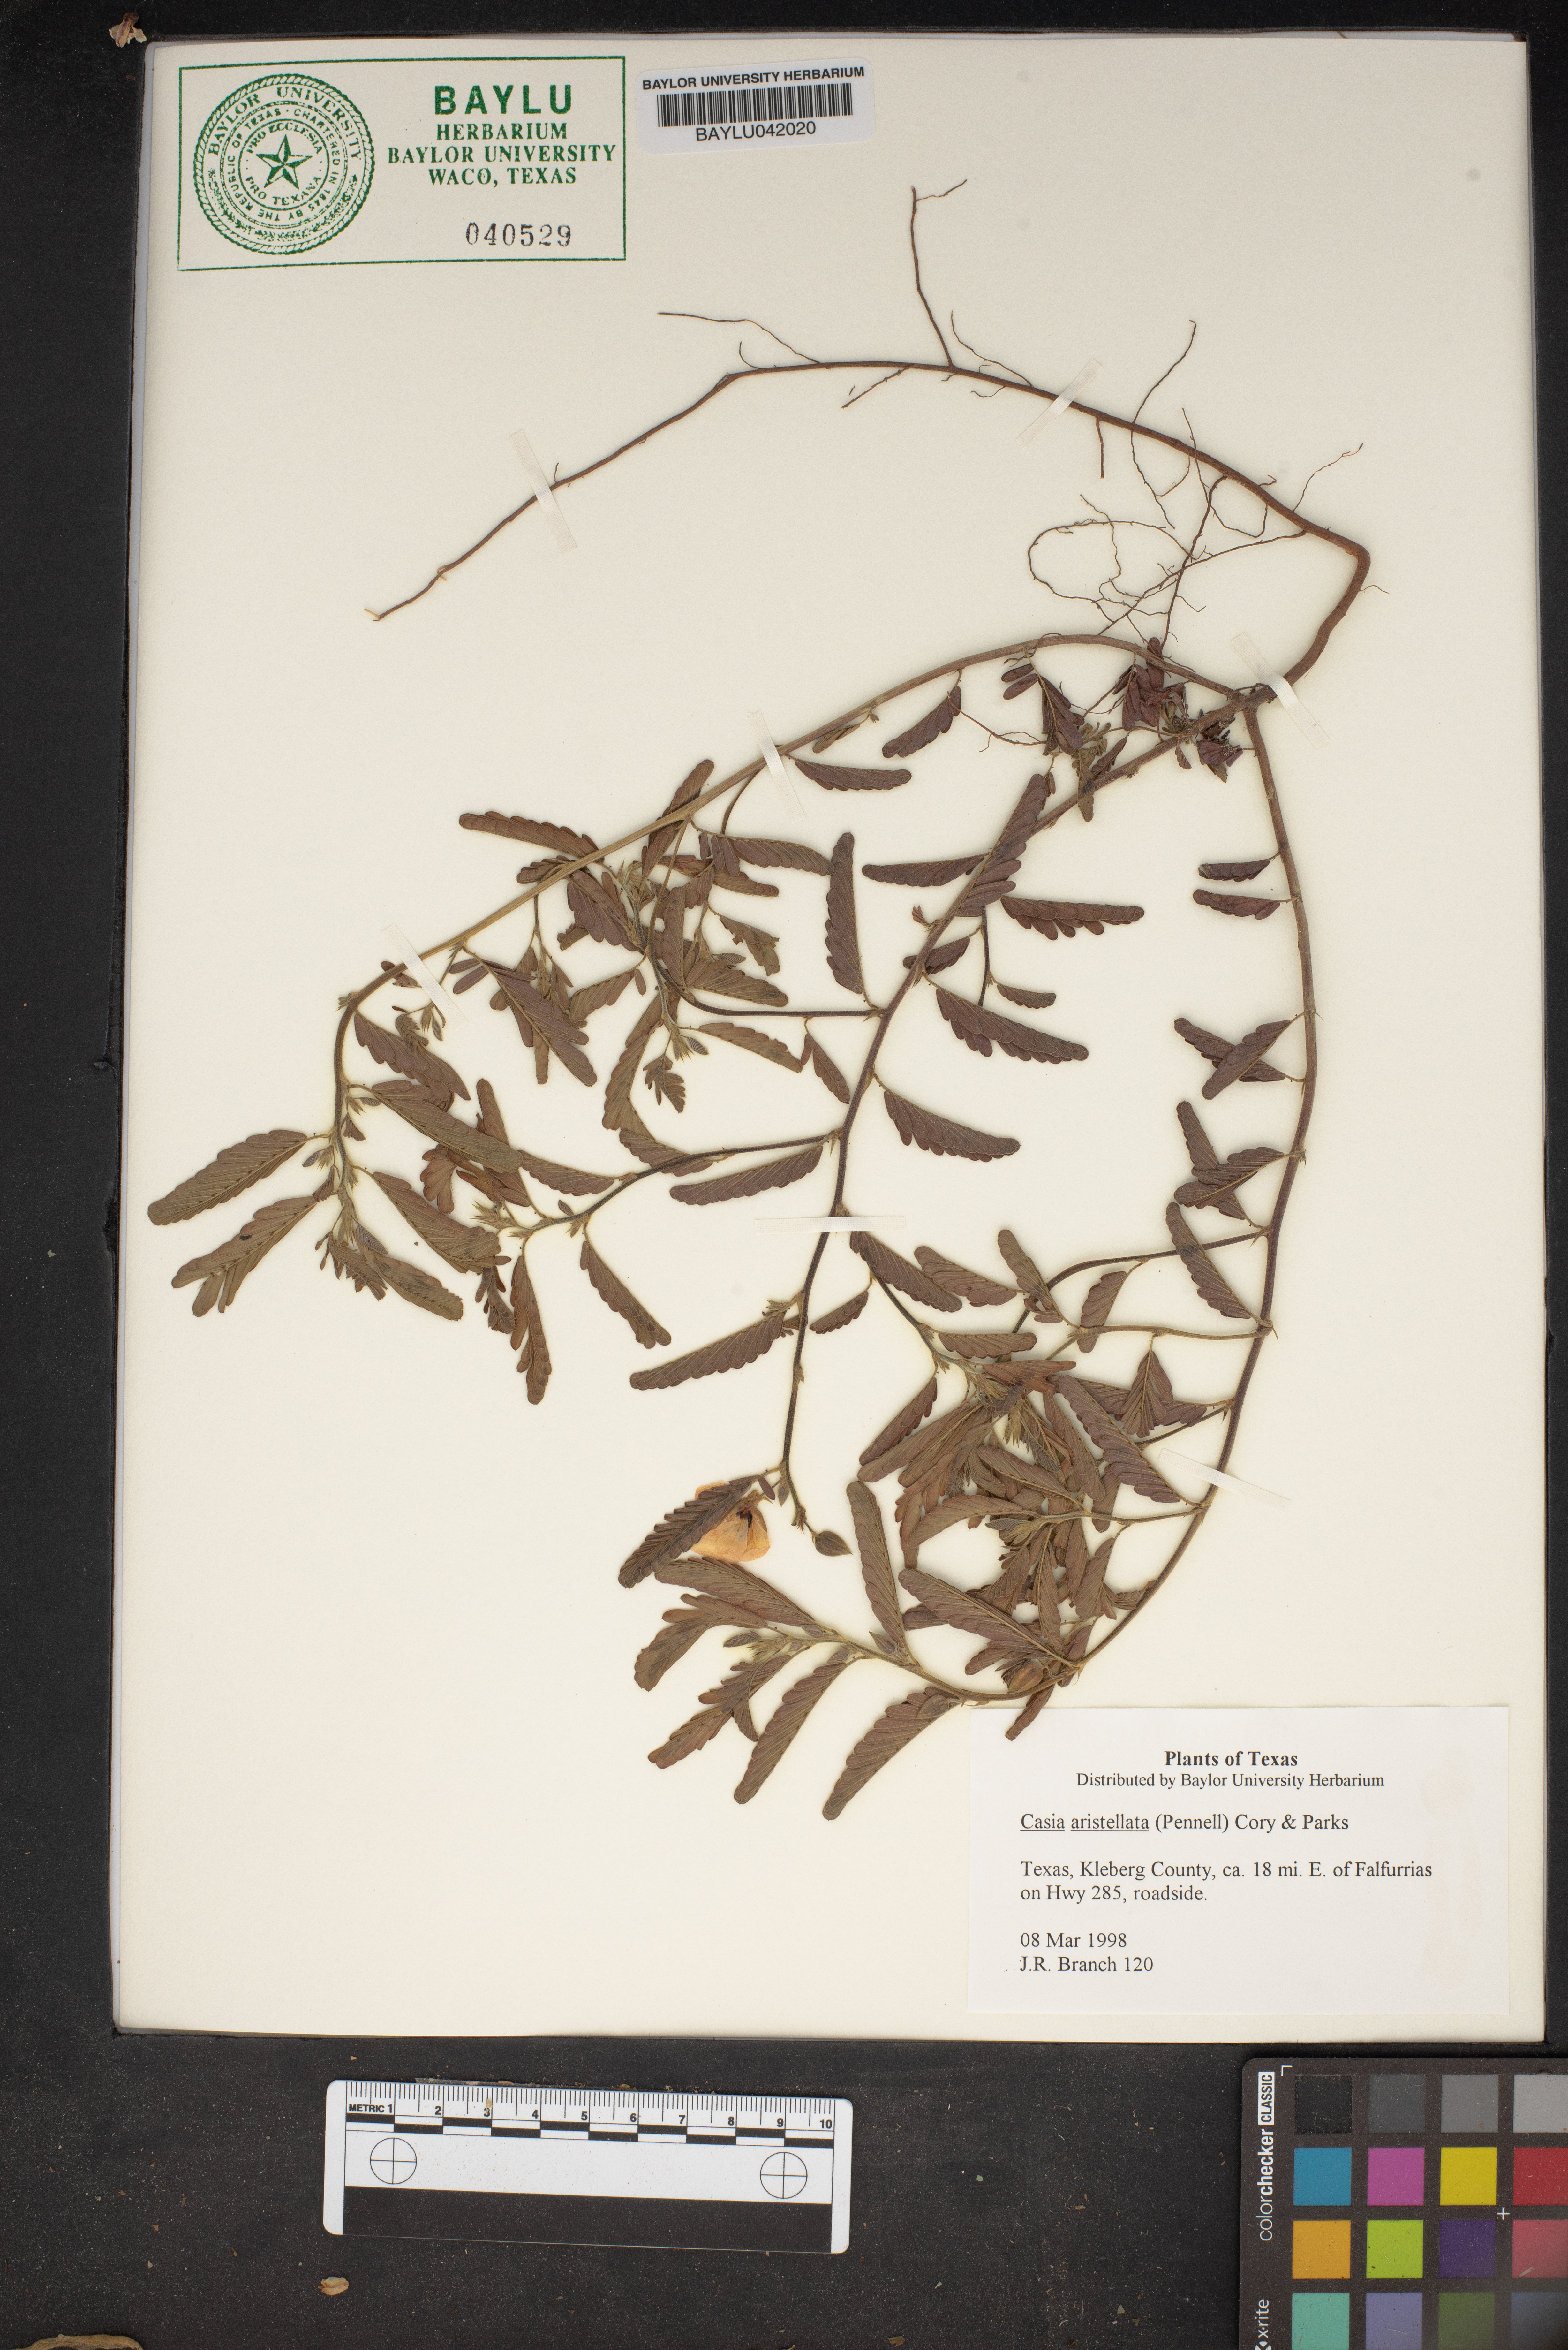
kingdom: Plantae
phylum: Tracheophyta
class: Magnoliopsida
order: Santalales
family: Santalaceae
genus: Casia
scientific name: Casia
